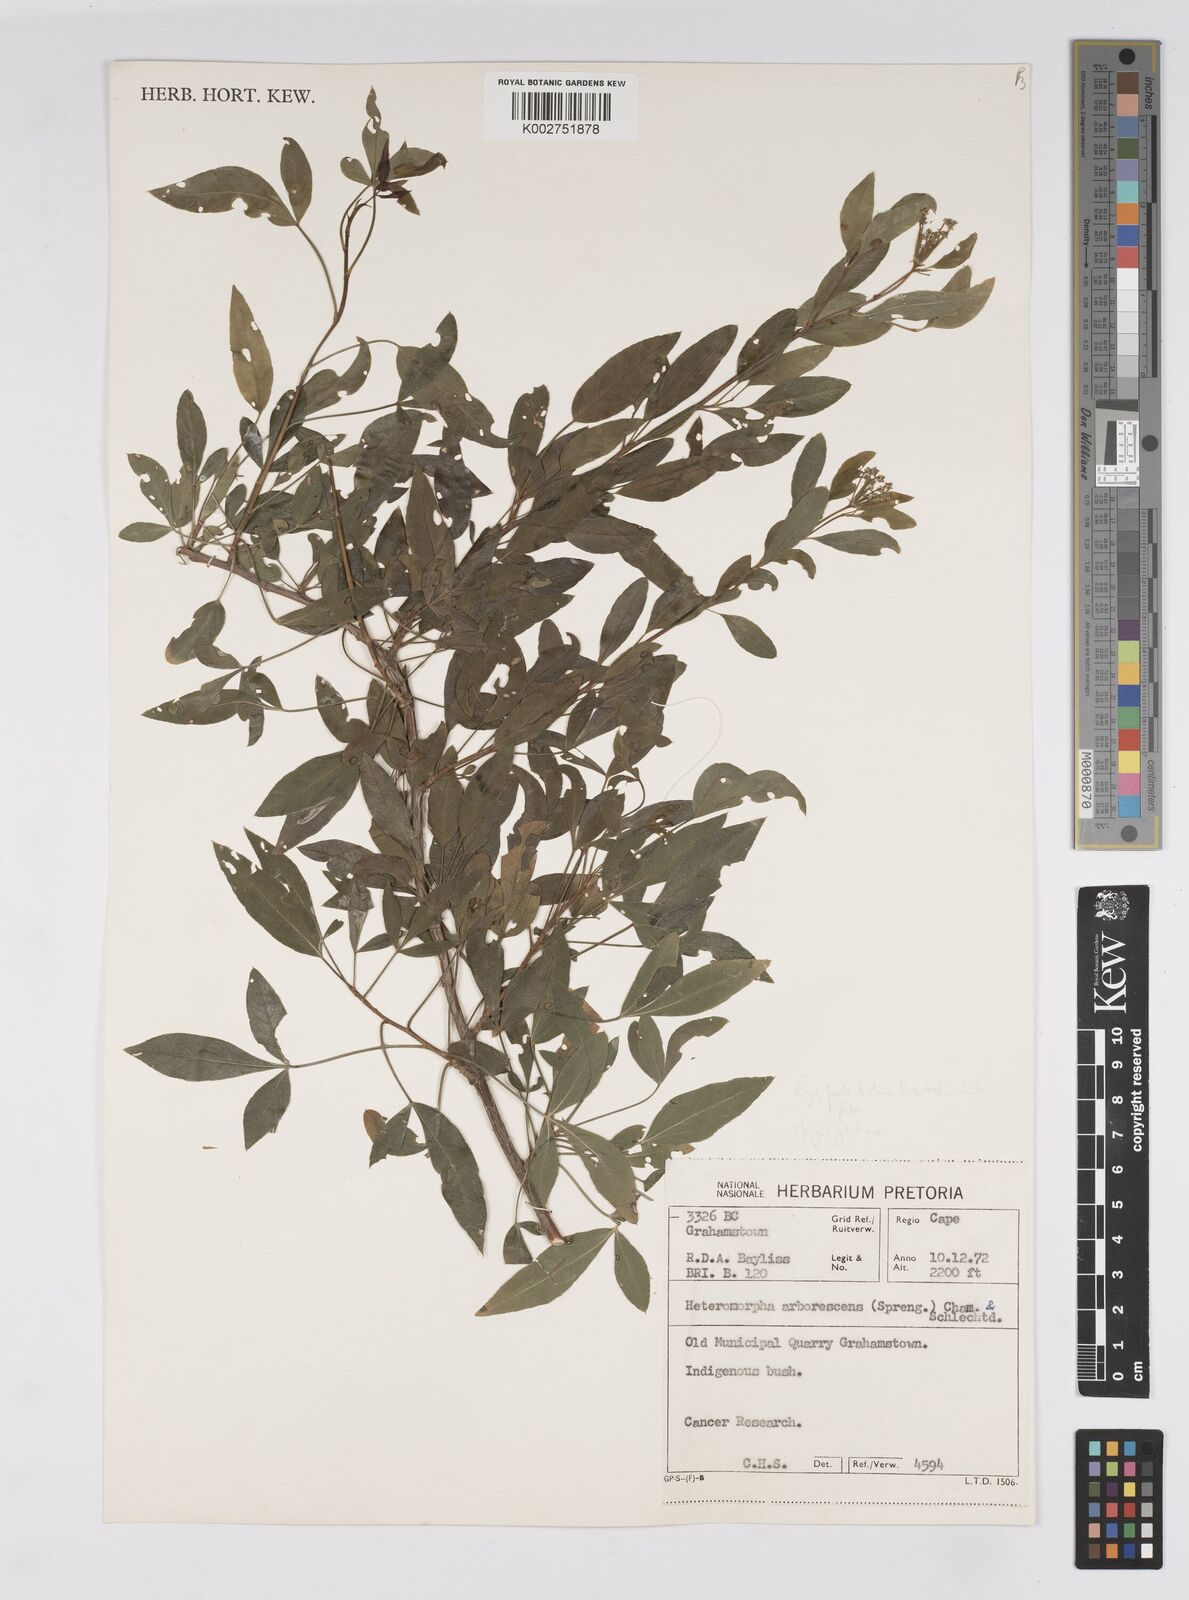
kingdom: Plantae
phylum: Tracheophyta
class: Magnoliopsida
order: Apiales
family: Apiaceae
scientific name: Apiaceae
